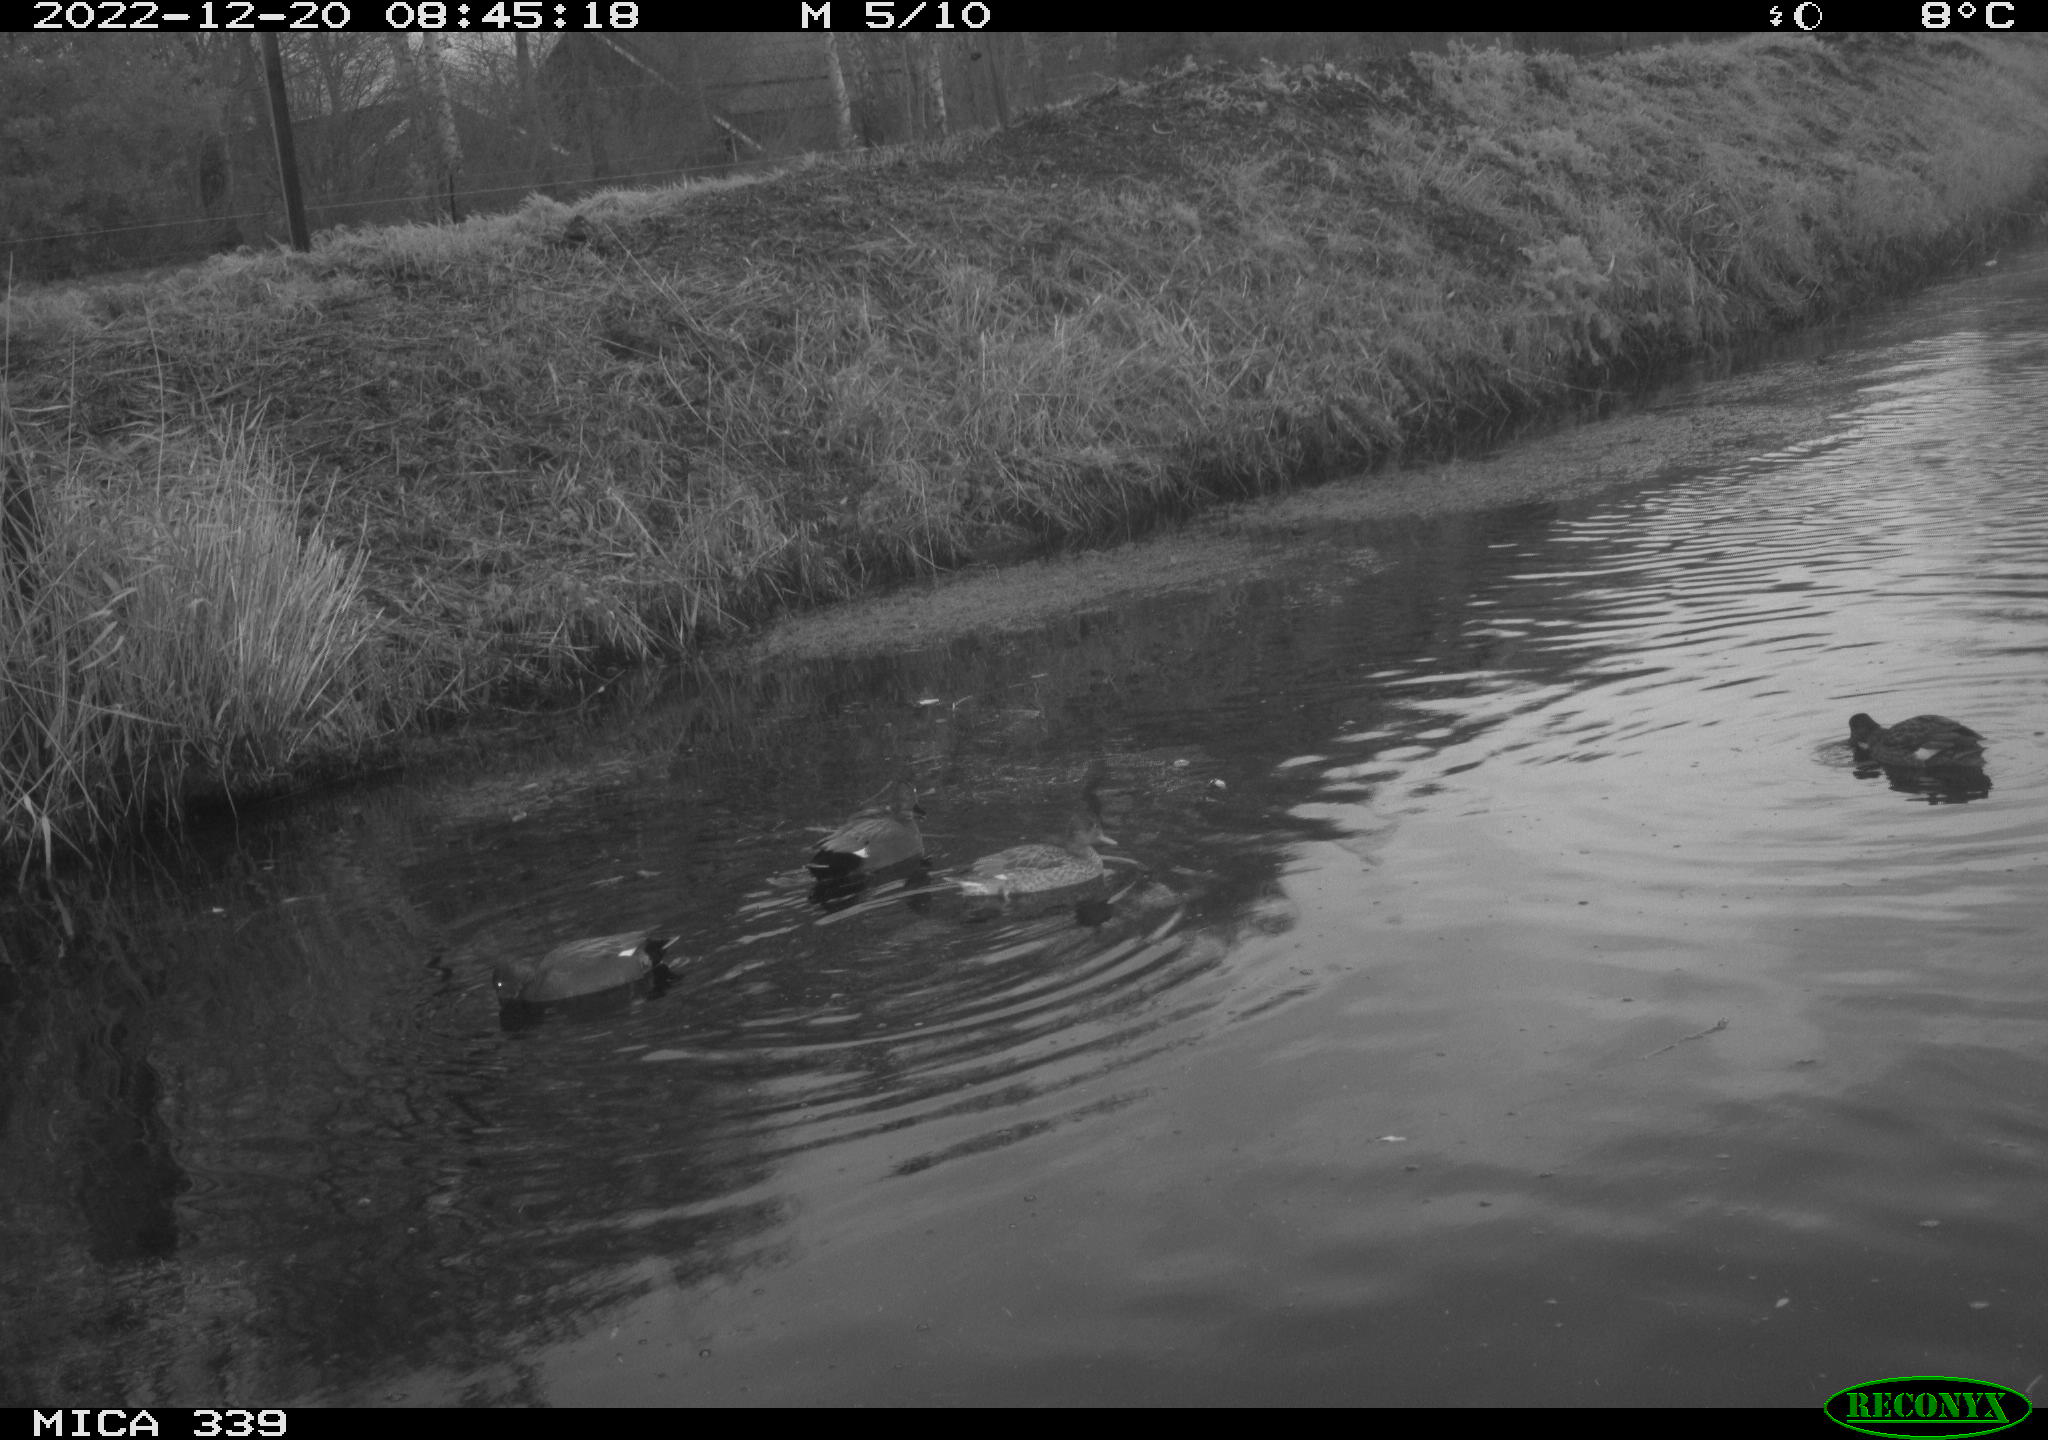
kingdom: Animalia
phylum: Chordata
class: Aves
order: Anseriformes
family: Anatidae
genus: Anas
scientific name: Anas
